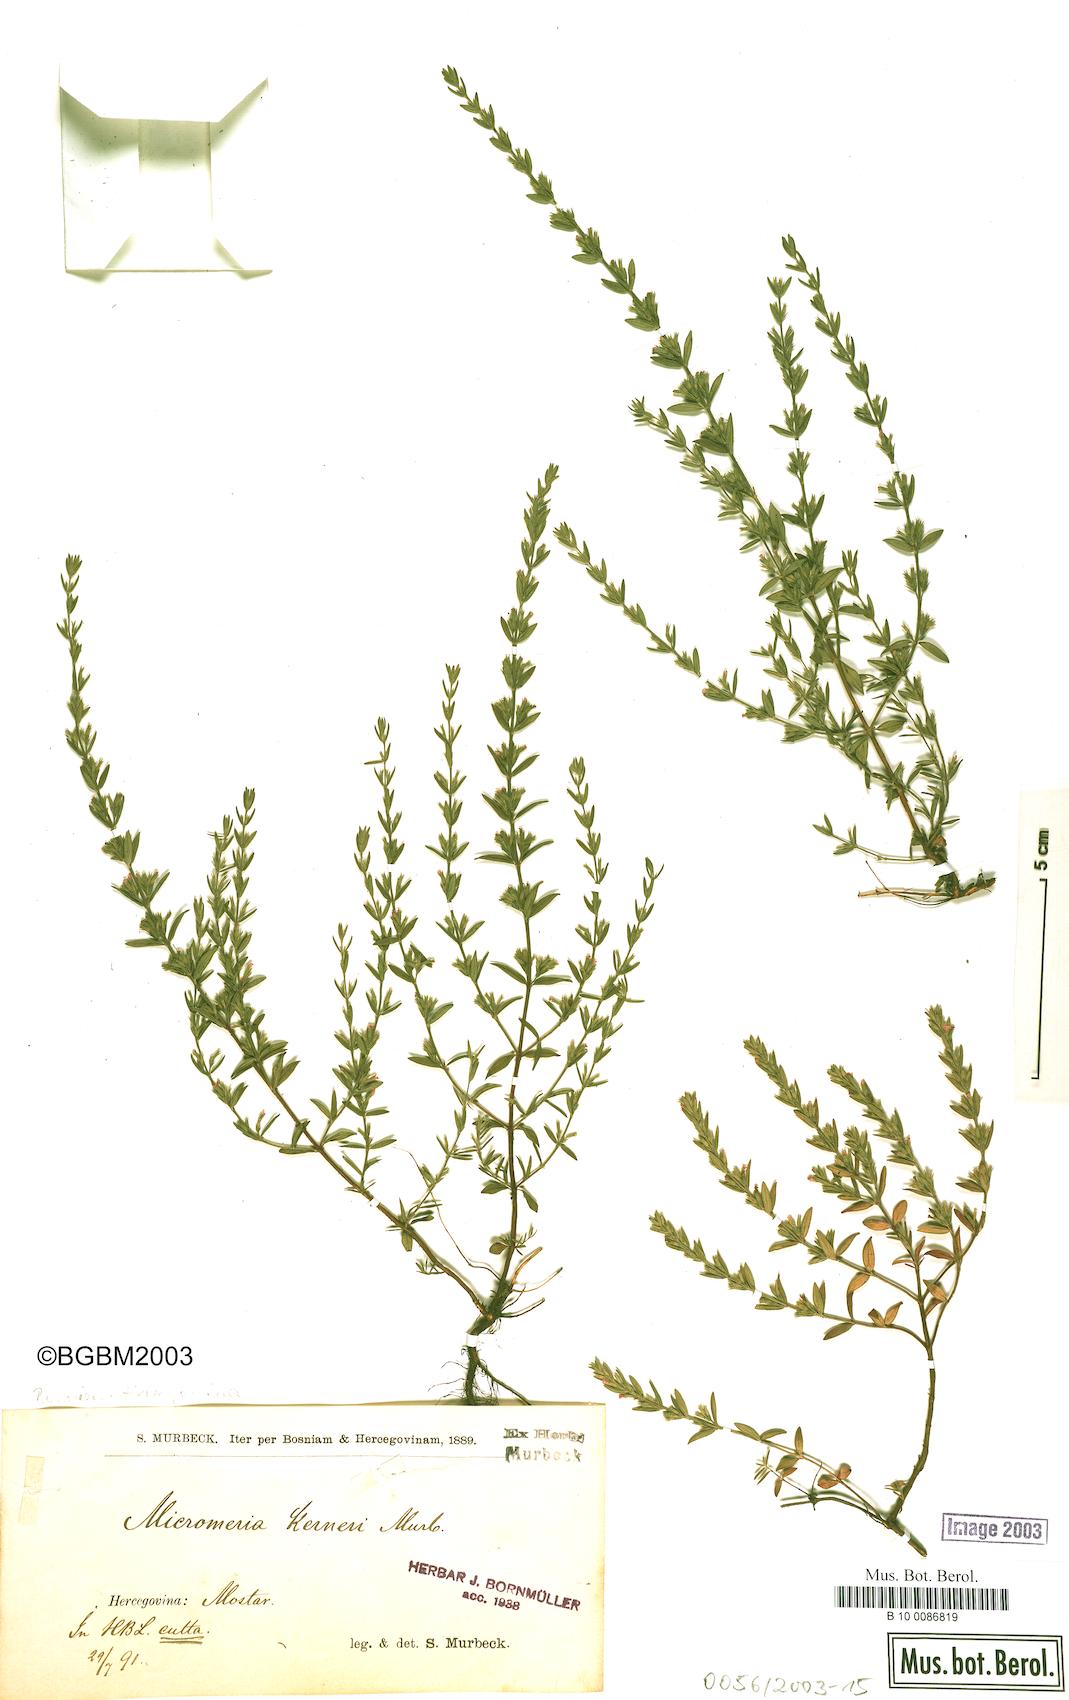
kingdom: Plantae
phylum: Tracheophyta
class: Magnoliopsida
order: Lamiales
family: Lamiaceae
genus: Micromeria
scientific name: Micromeria kerneri
